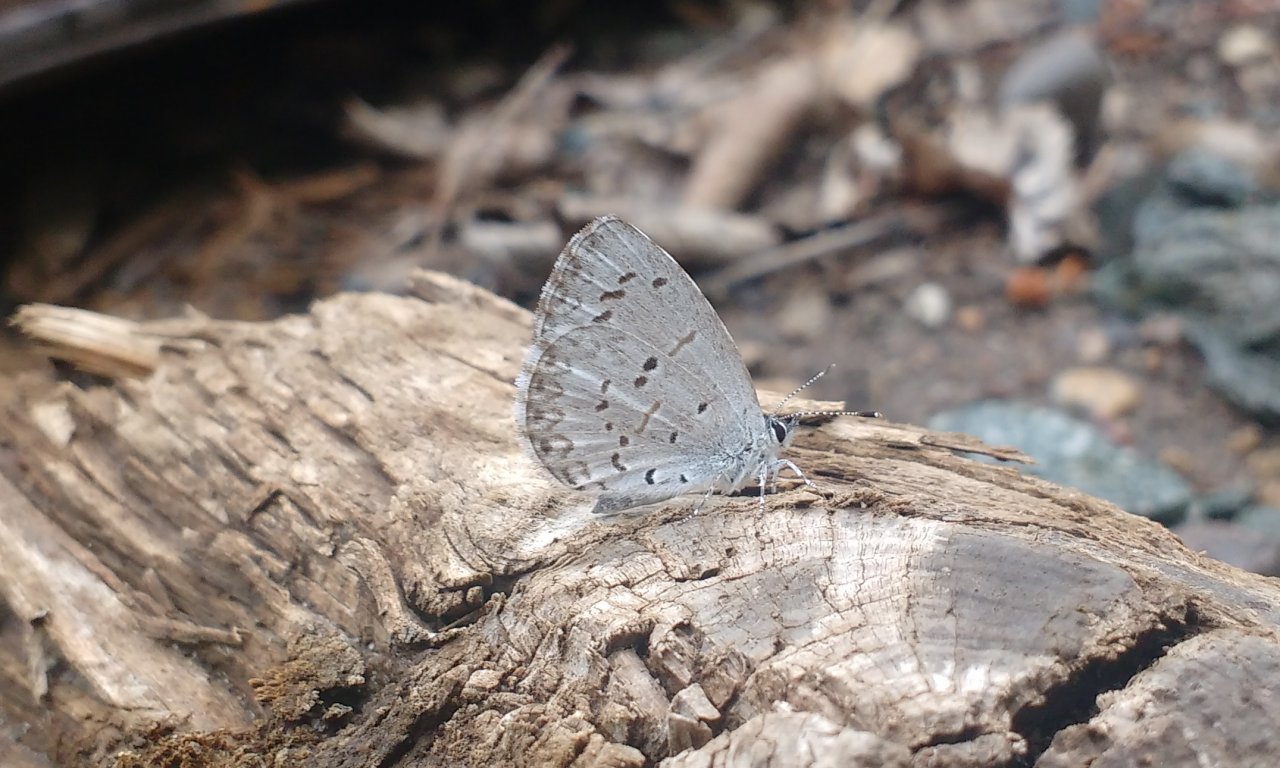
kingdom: Animalia
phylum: Arthropoda
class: Insecta
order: Lepidoptera
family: Lycaenidae
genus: Celastrina
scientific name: Celastrina lucia
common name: Northern Spring Azure
